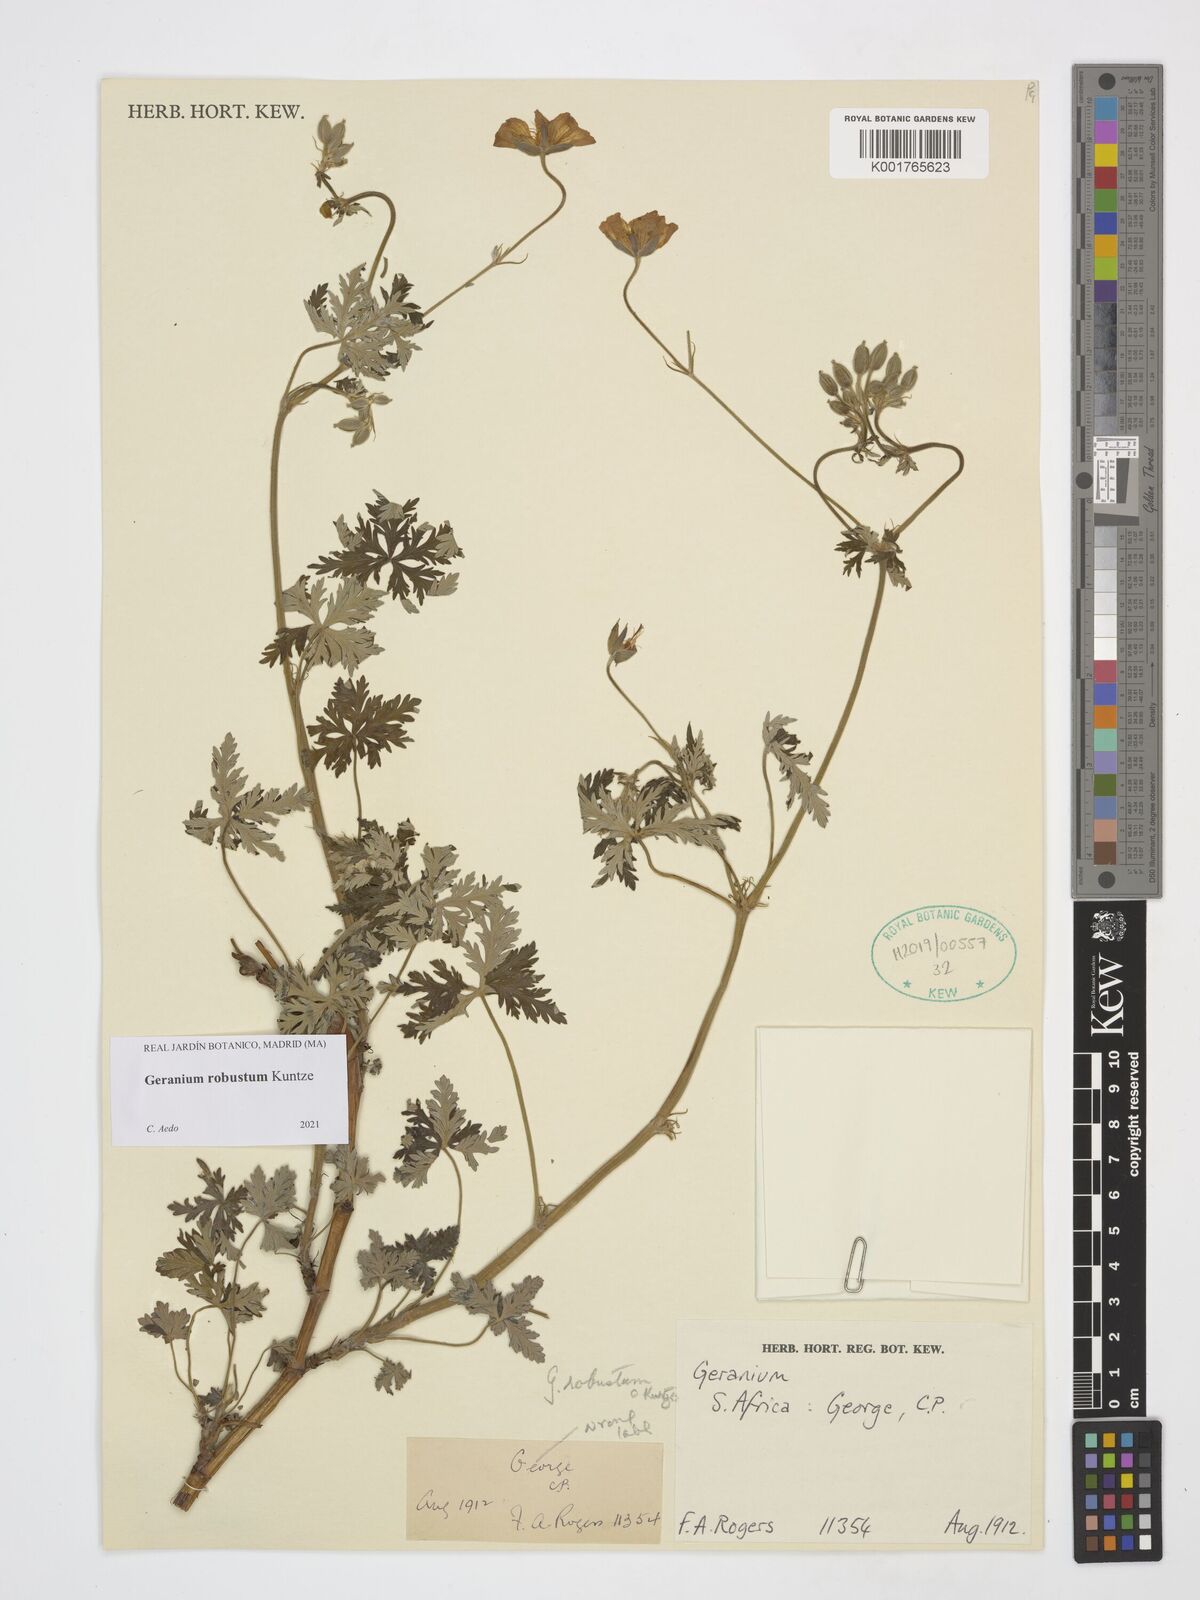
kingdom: Plantae
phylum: Tracheophyta
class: Magnoliopsida
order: Geraniales
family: Geraniaceae
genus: Geranium
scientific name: Geranium robustum
